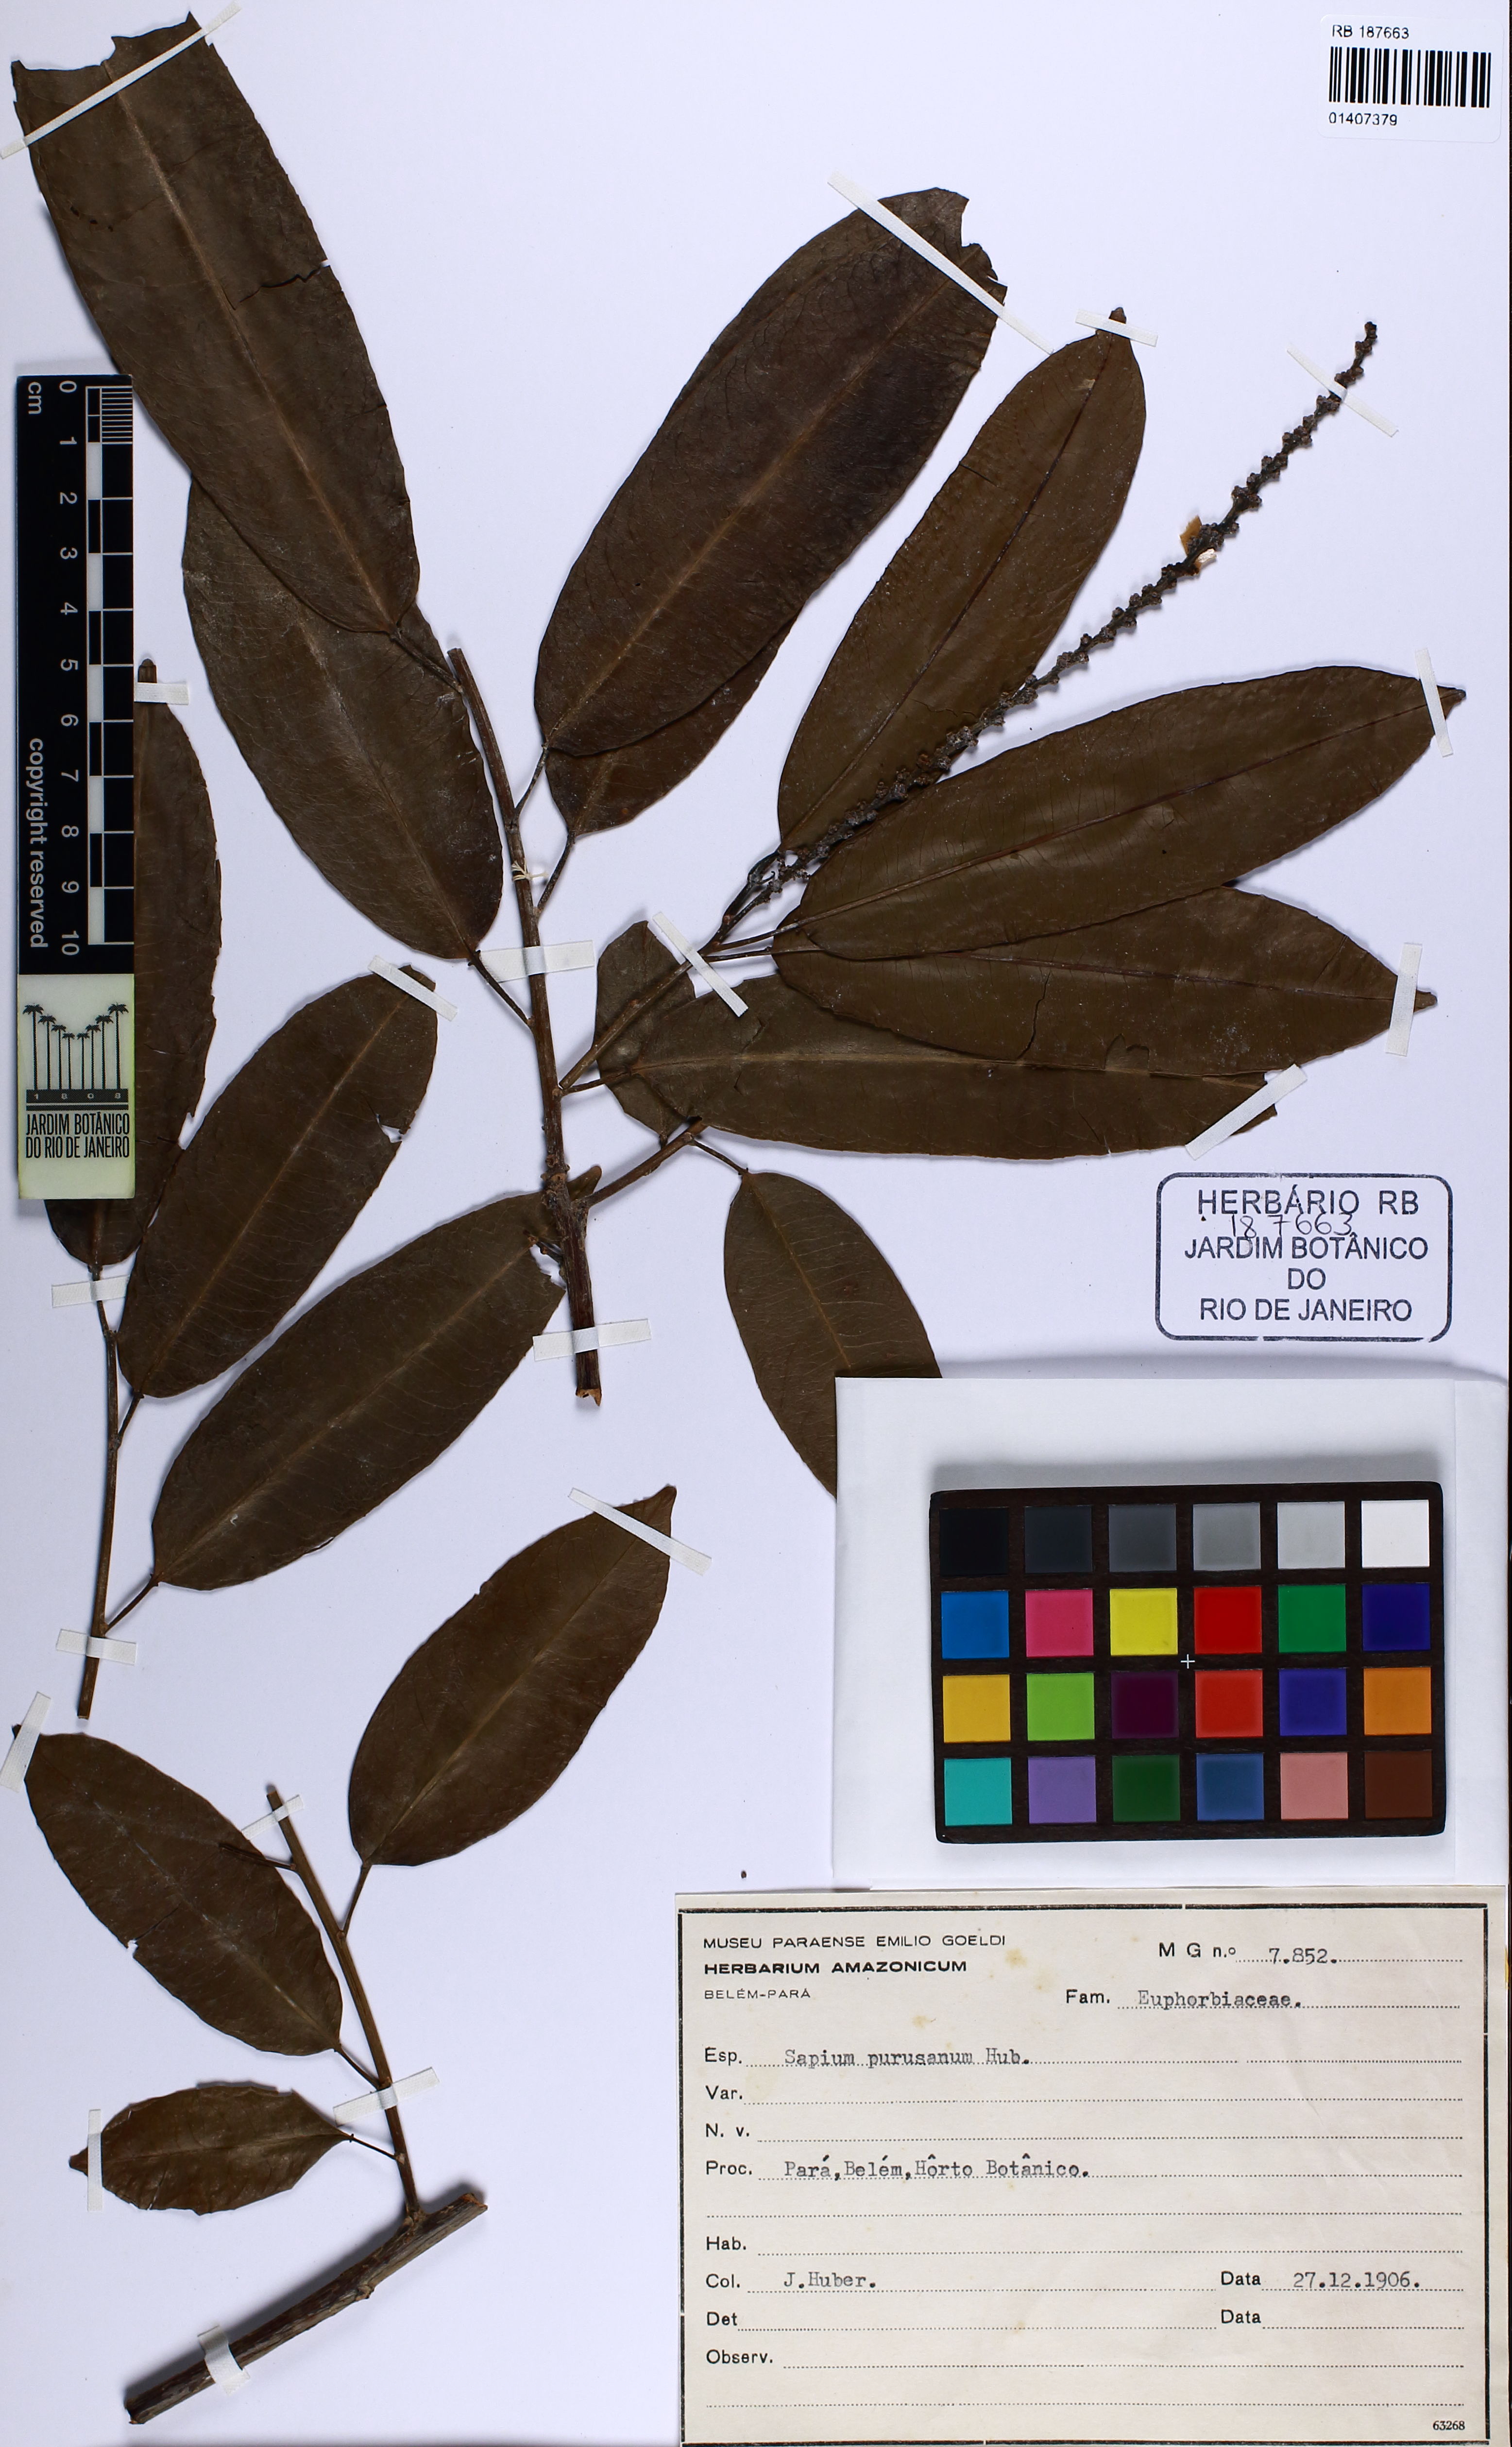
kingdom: Plantae
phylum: Tracheophyta
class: Magnoliopsida
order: Malpighiales
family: Euphorbiaceae
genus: Sapium
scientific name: Sapium purusanum
